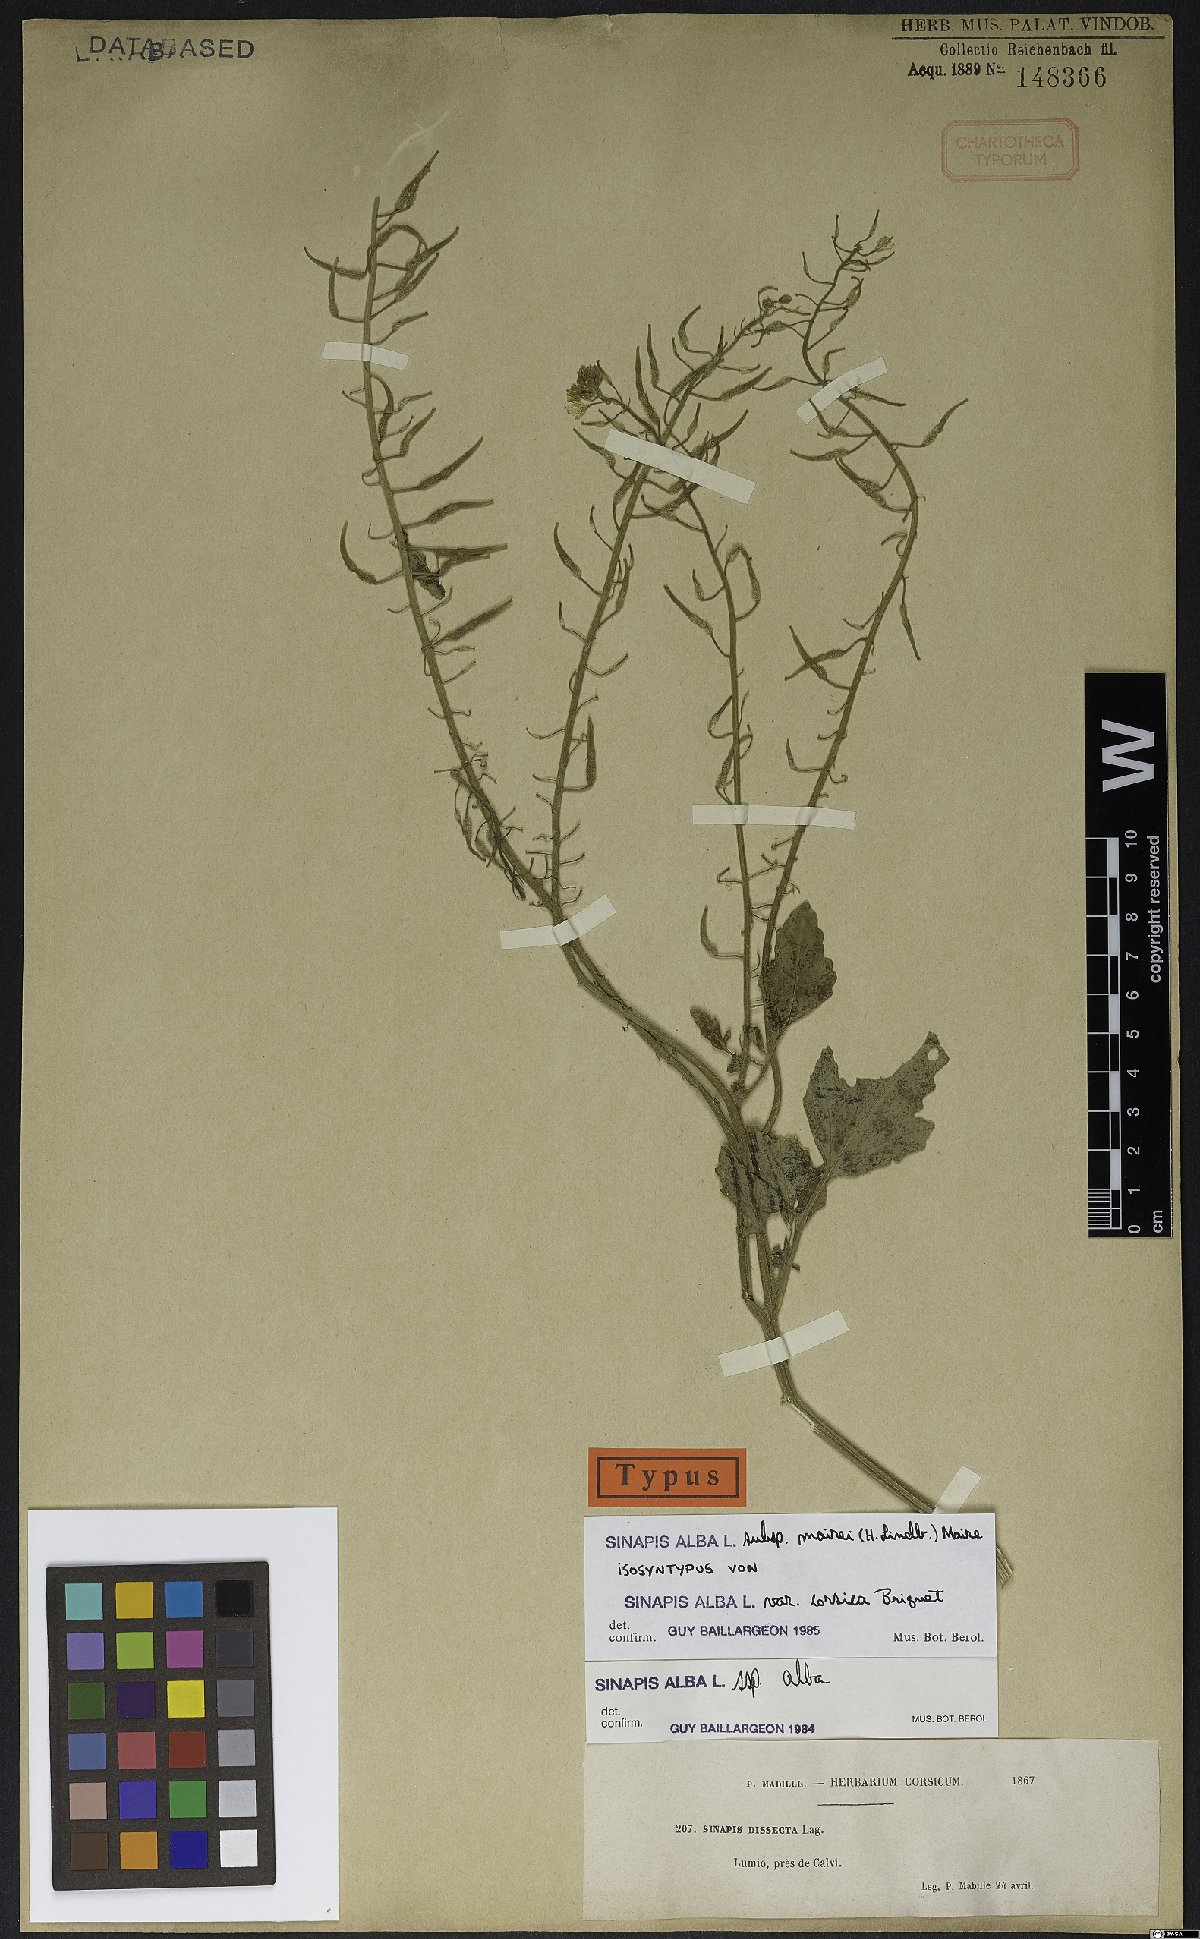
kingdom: Plantae
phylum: Tracheophyta
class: Magnoliopsida
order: Brassicales
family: Brassicaceae
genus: Sinapis
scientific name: Sinapis alba
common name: White mustard
